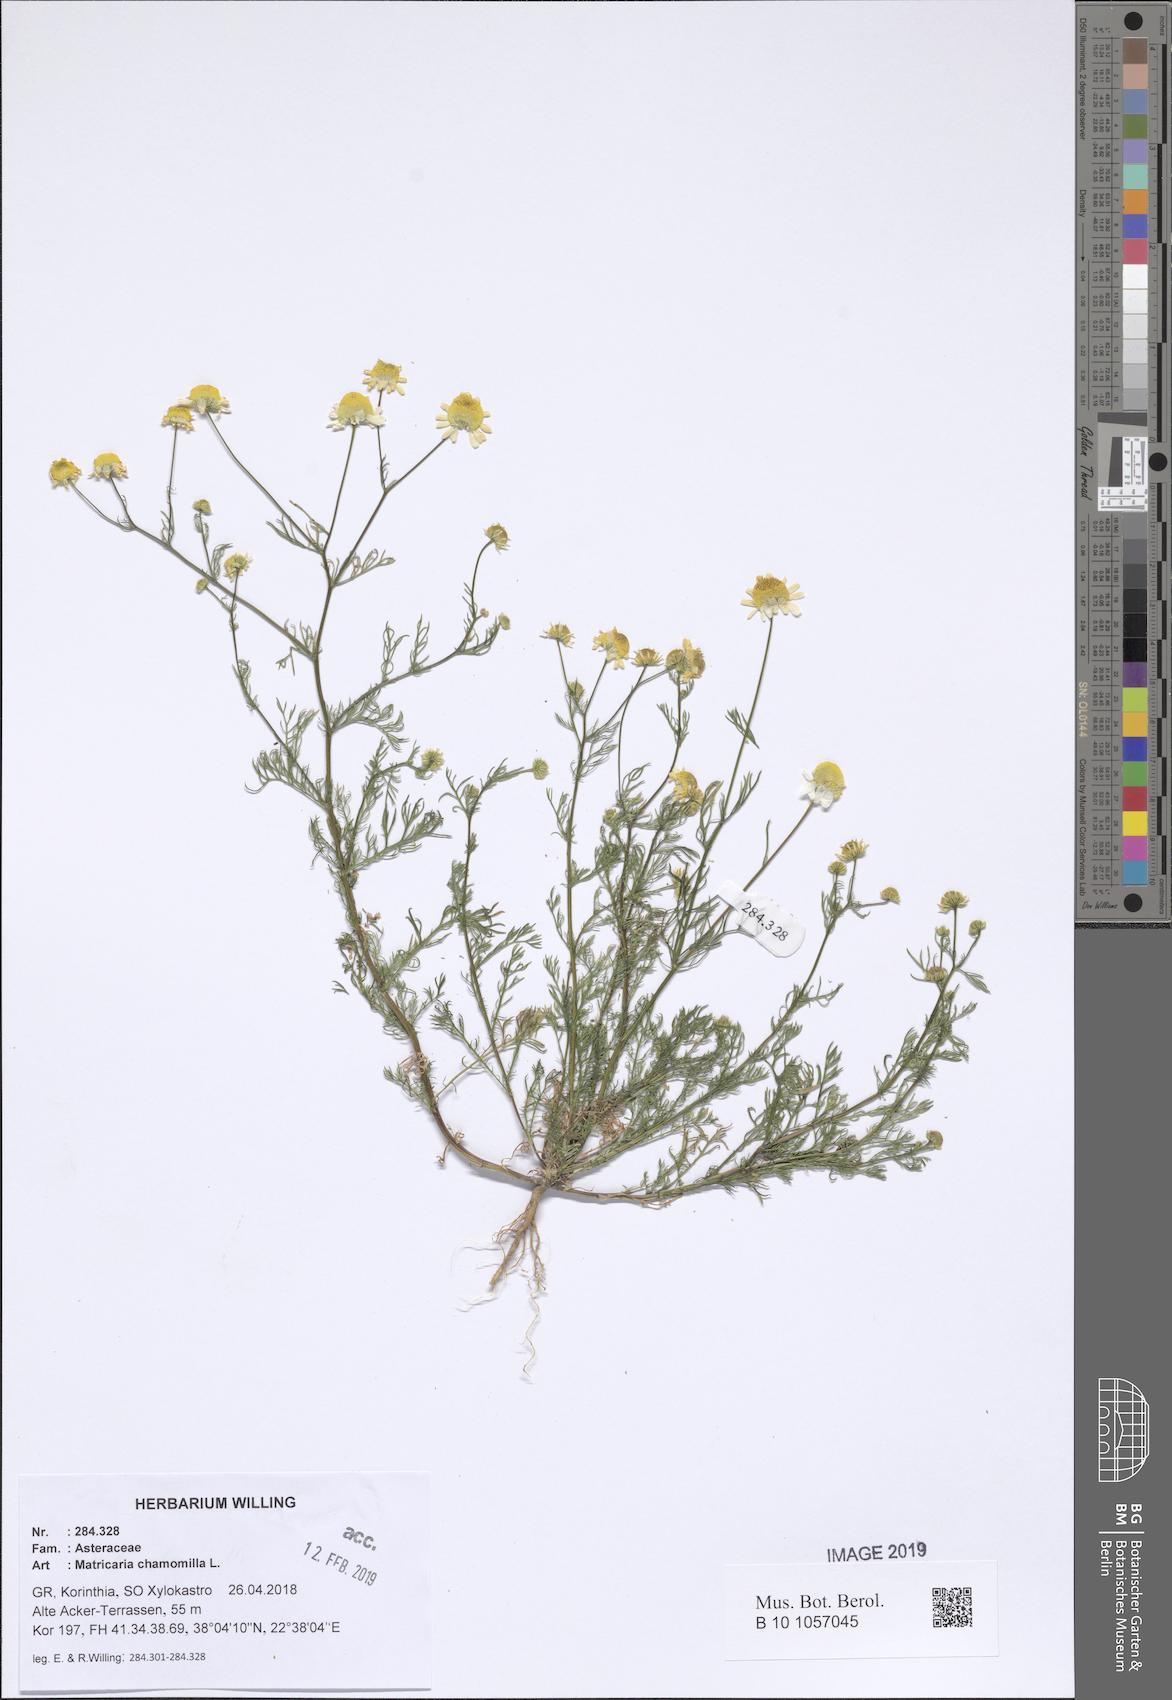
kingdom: Plantae
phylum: Tracheophyta
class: Magnoliopsida
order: Asterales
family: Asteraceae
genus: Matricaria
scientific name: Matricaria chamomilla
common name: Scented mayweed
